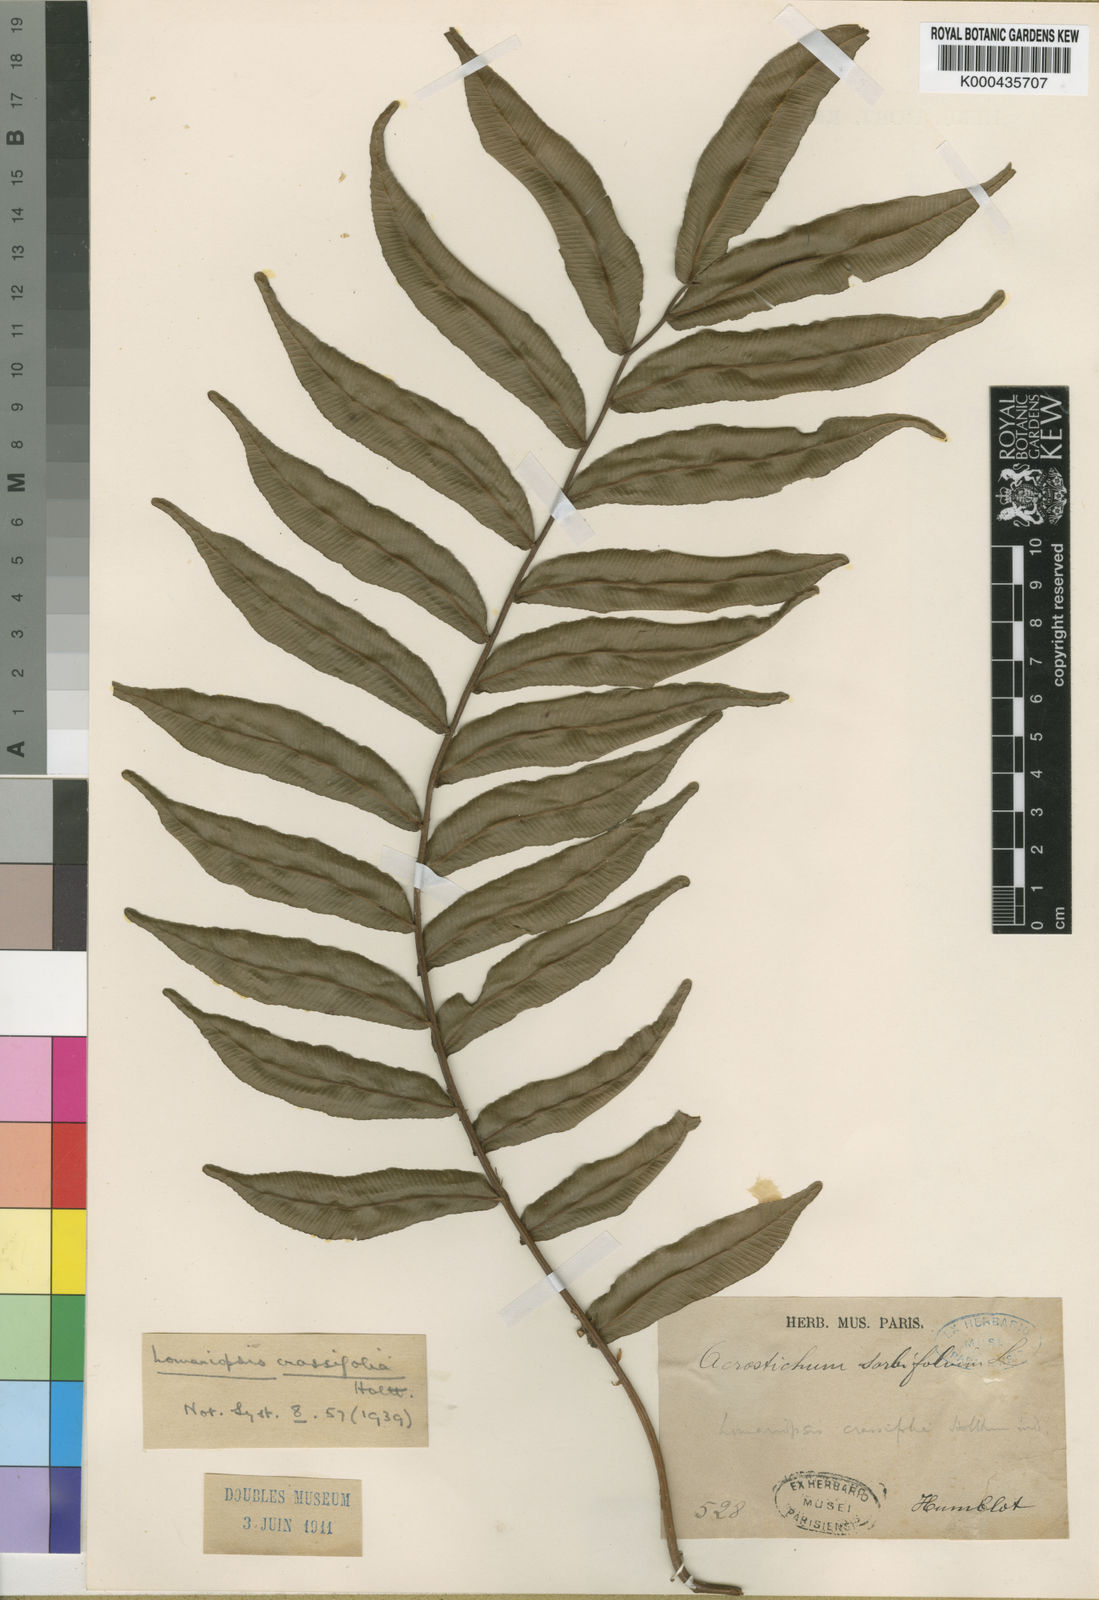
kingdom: Plantae
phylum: Tracheophyta
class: Polypodiopsida
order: Polypodiales
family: Lomariopsidaceae
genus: Lomariopsis
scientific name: Lomariopsis crassifolia
